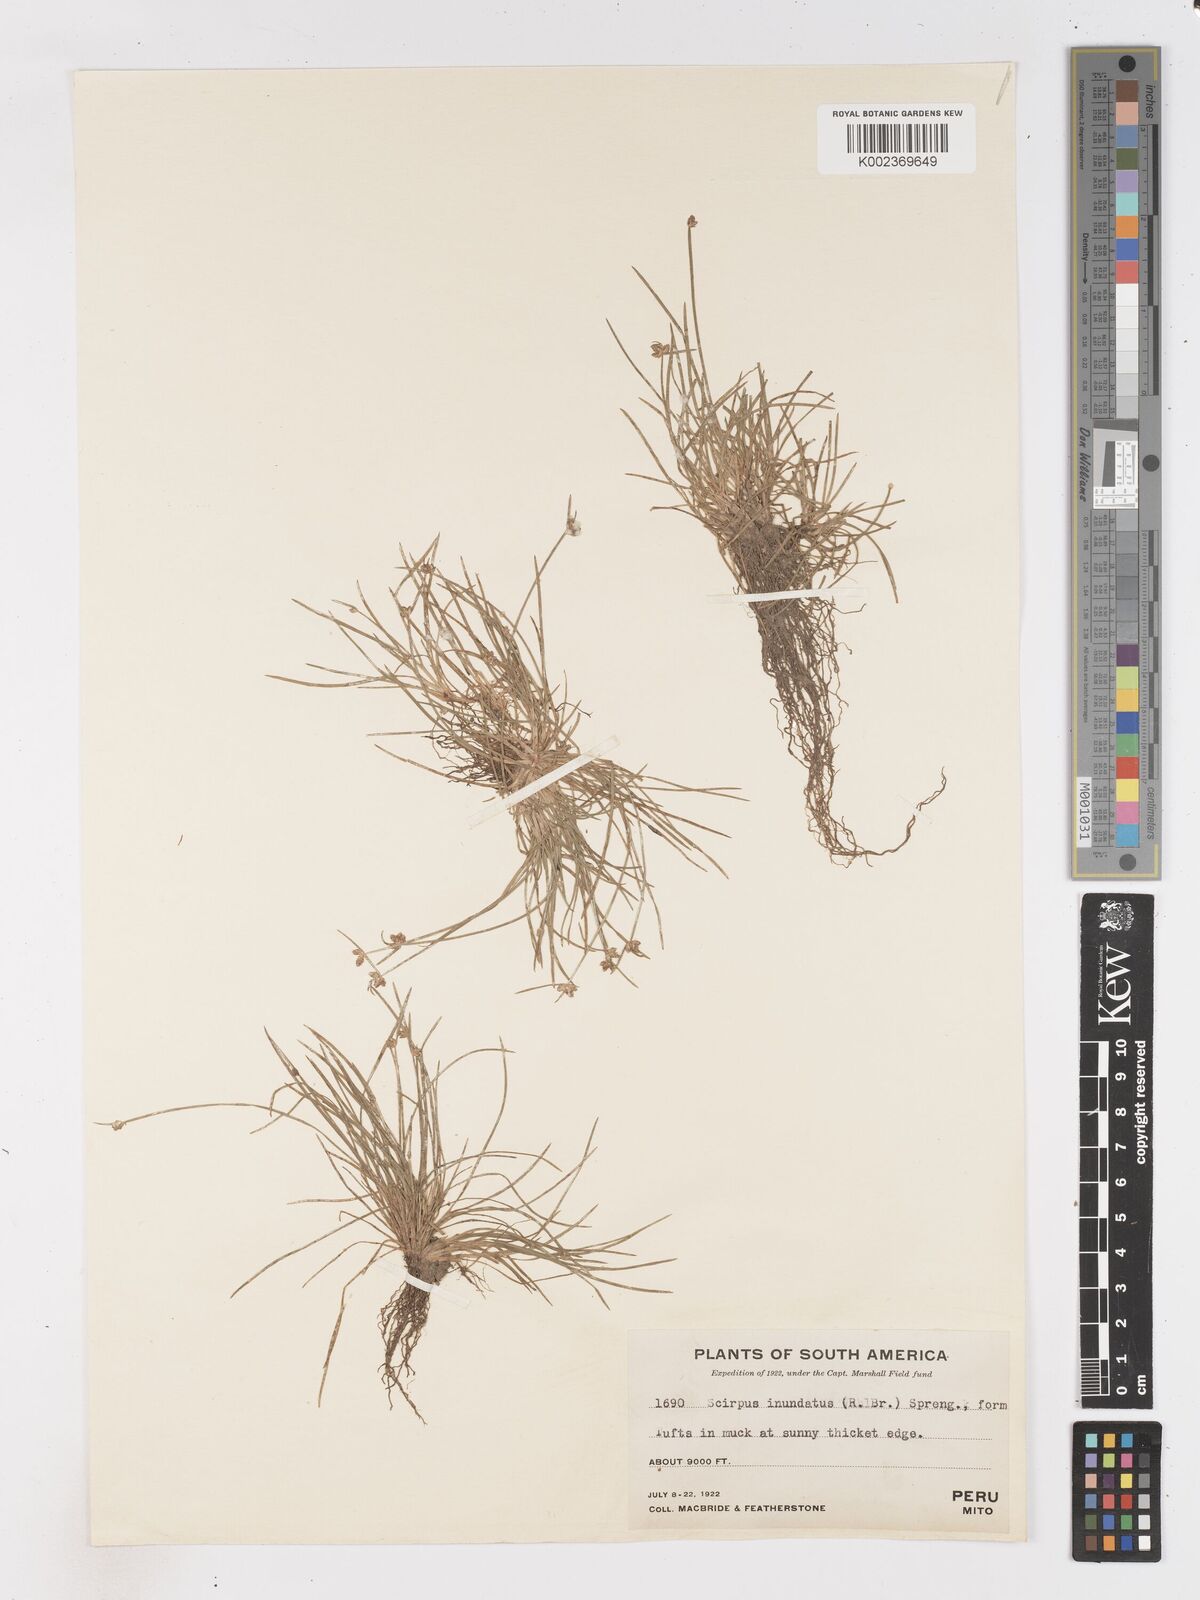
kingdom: Plantae
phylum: Tracheophyta
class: Liliopsida
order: Poales
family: Cyperaceae
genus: Isolepis
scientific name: Isolepis inundata
